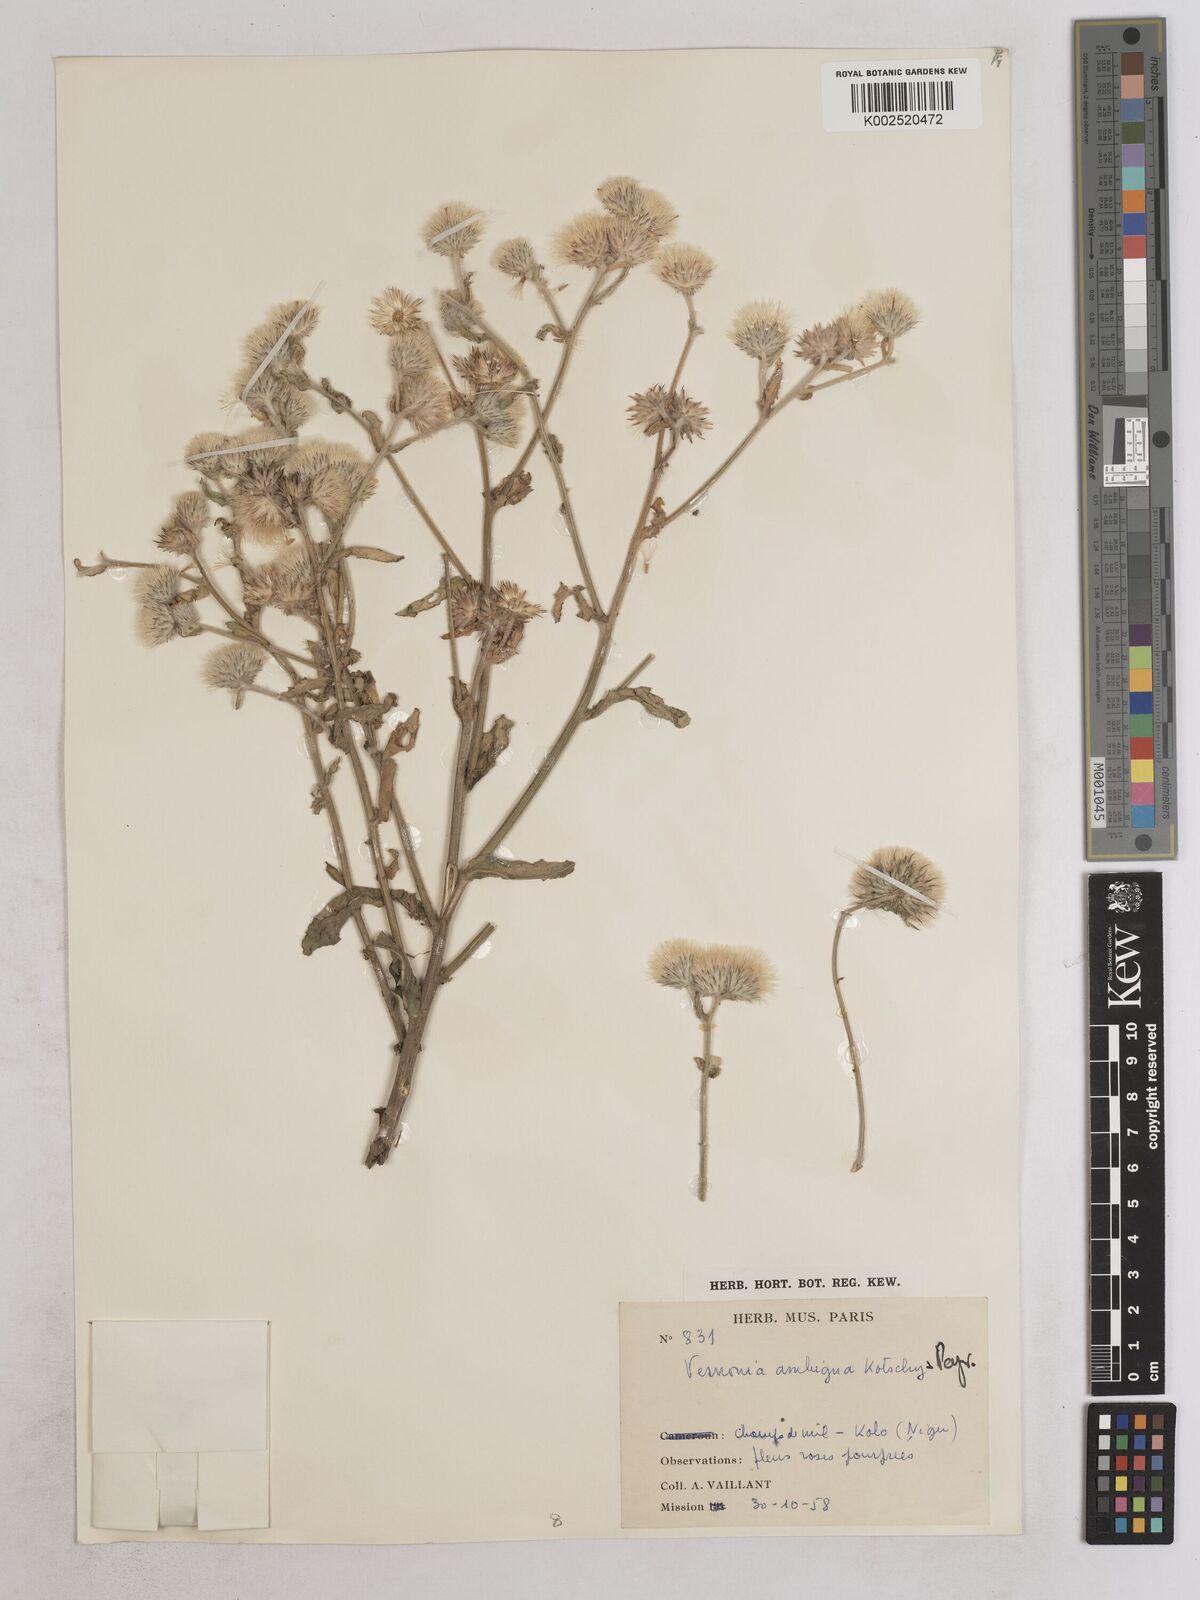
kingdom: Plantae
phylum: Tracheophyta
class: Magnoliopsida
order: Asterales
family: Asteraceae
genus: Vernoniastrum
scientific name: Vernoniastrum ambiguum
